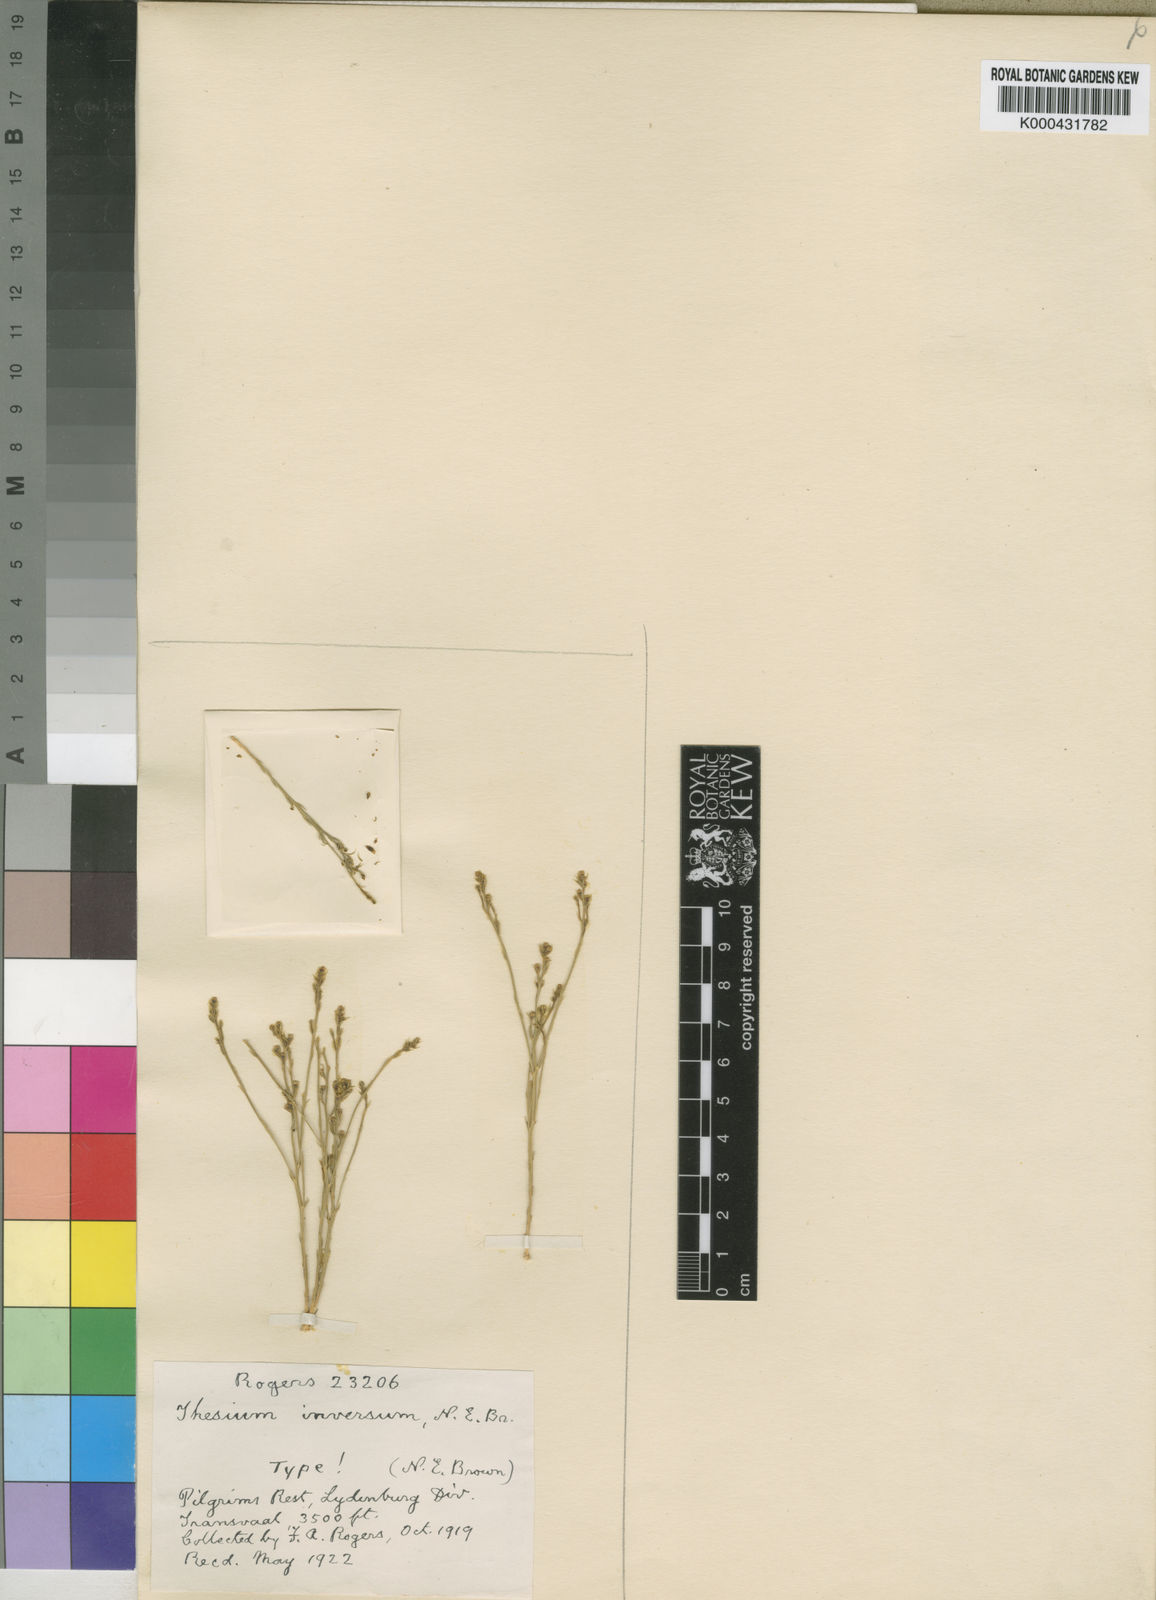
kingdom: Plantae
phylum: Tracheophyta
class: Magnoliopsida
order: Santalales
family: Thesiaceae
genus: Thesium
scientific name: Thesium inversum
